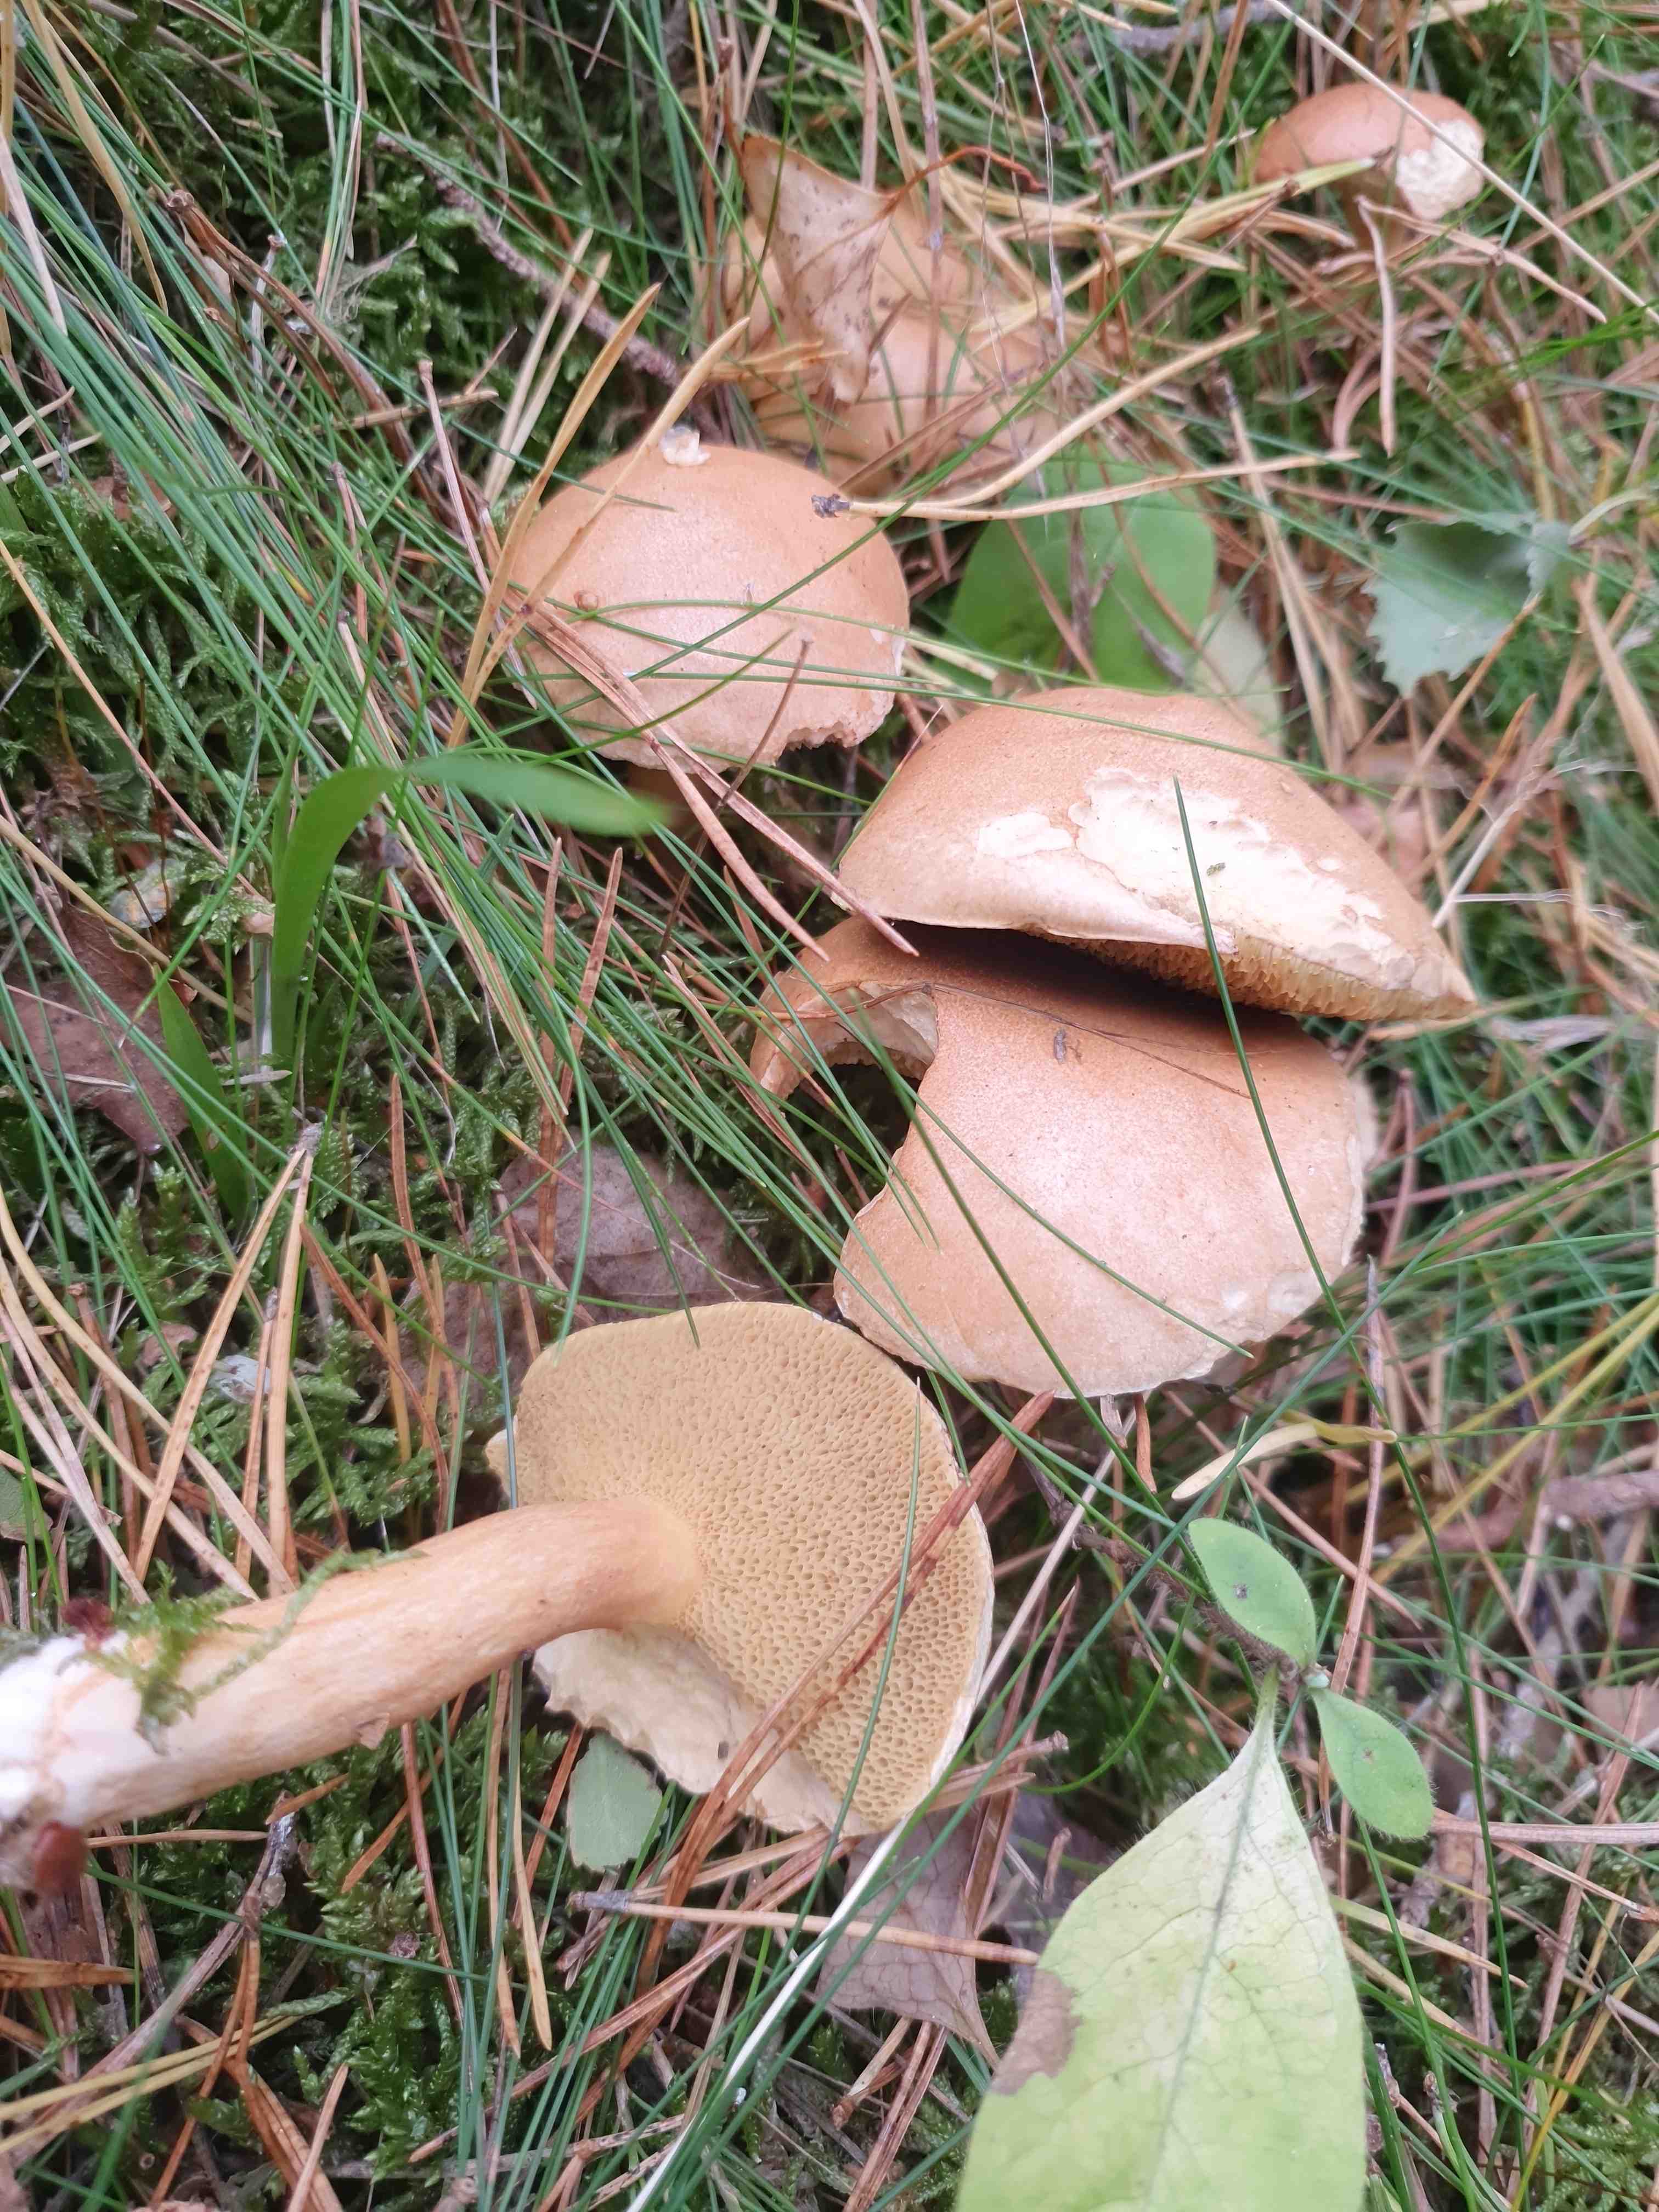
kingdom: Fungi
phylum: Basidiomycota
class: Agaricomycetes
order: Boletales
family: Suillaceae
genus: Suillus
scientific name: Suillus bovinus
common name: grovporet slimrørhat
